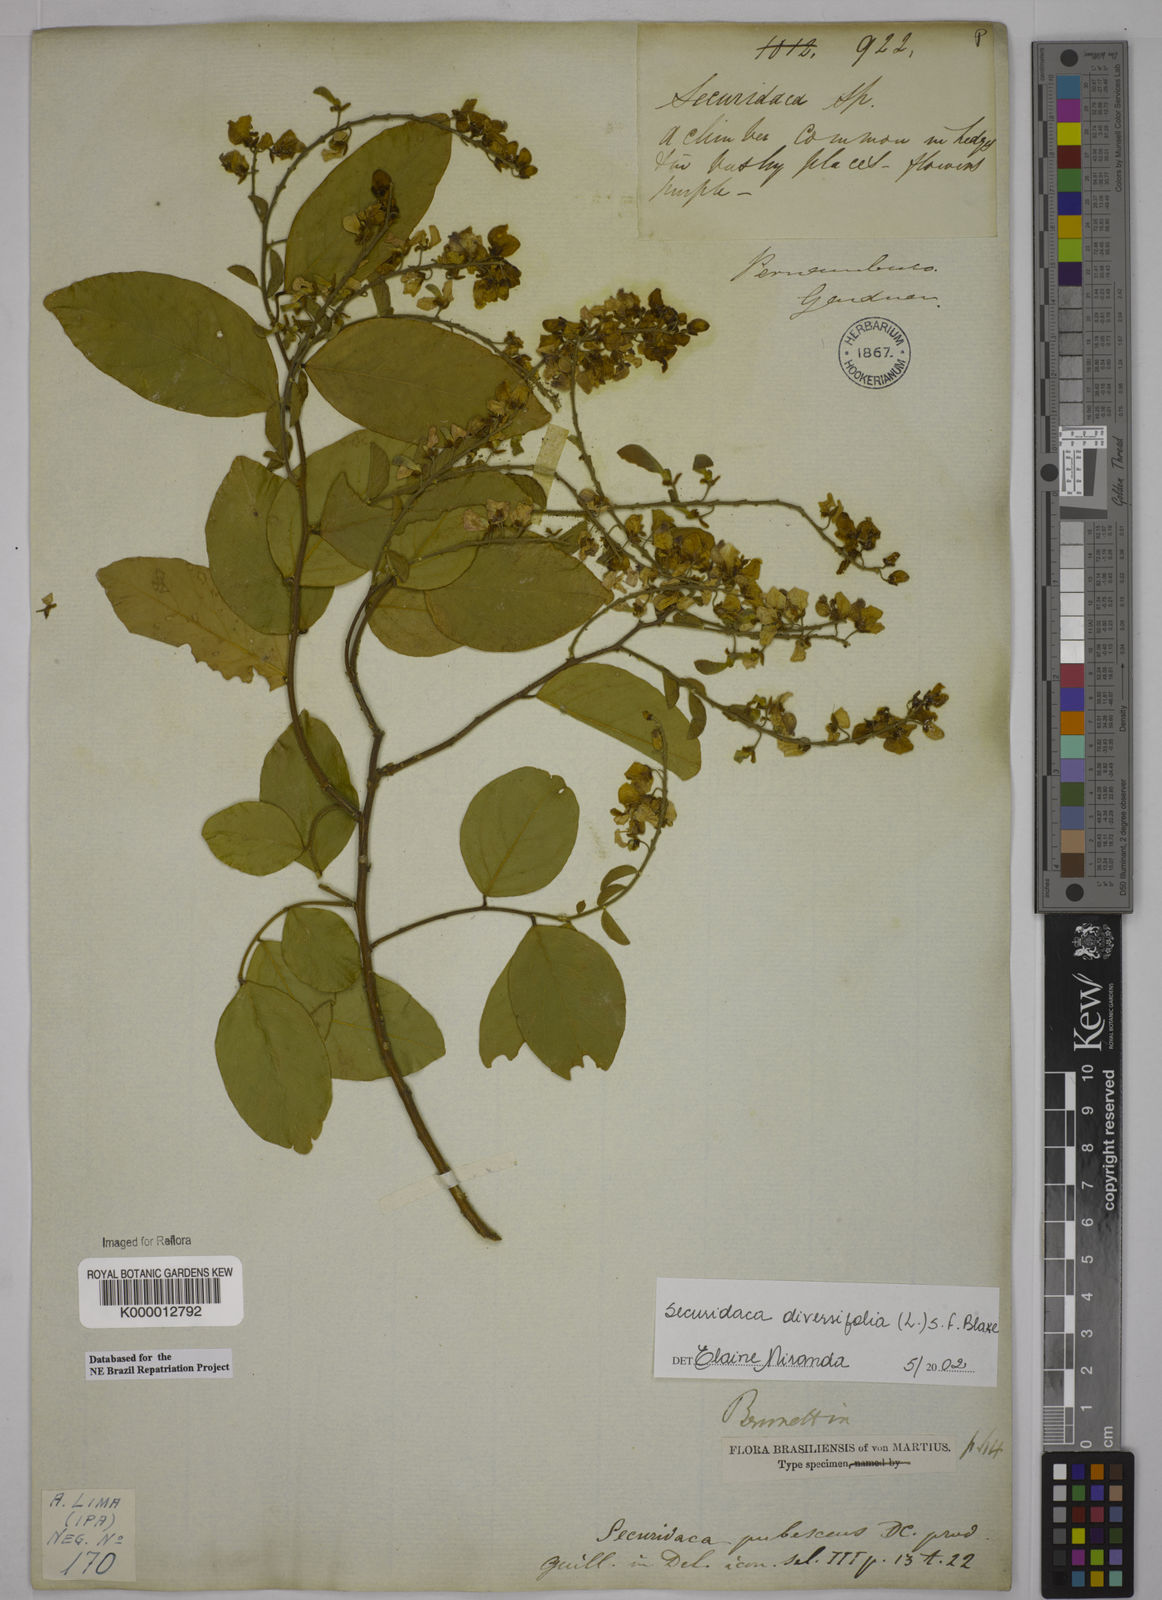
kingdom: Plantae
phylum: Tracheophyta
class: Magnoliopsida
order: Fabales
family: Polygalaceae
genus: Securidaca
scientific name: Securidaca diversifolia
